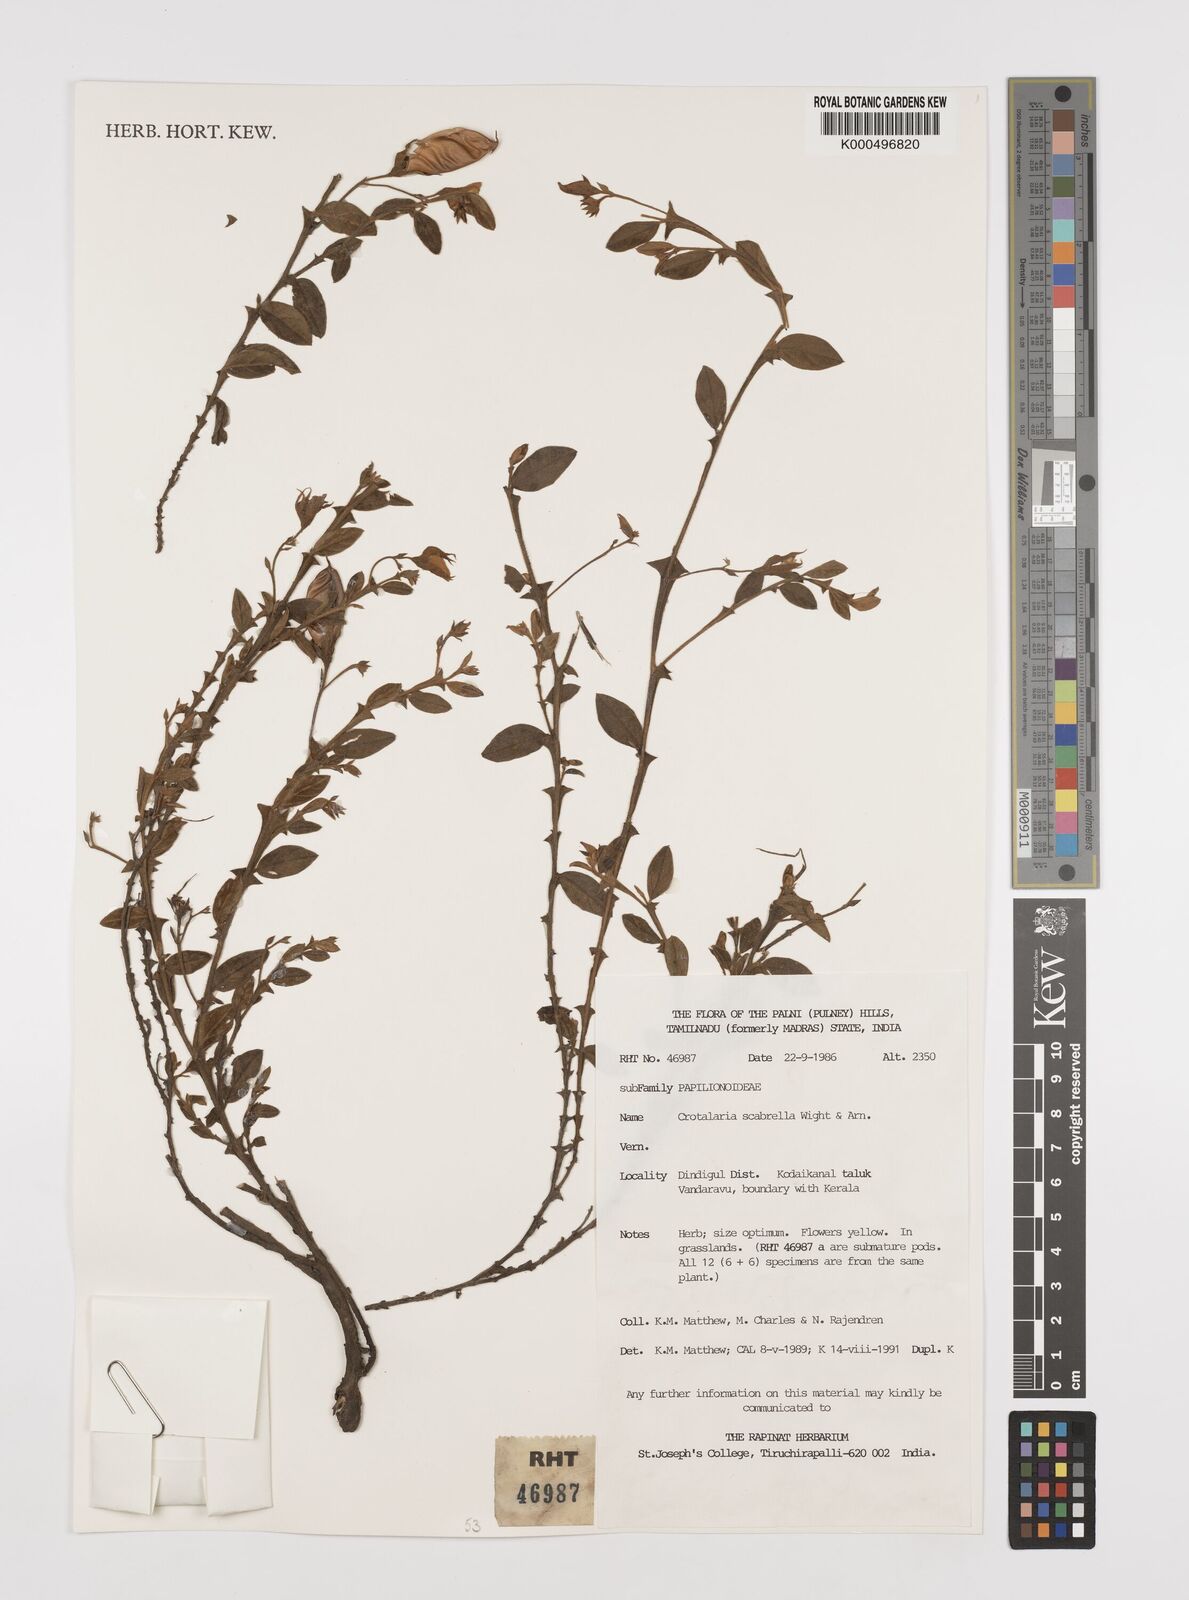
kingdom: Plantae
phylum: Tracheophyta
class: Magnoliopsida
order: Fabales
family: Fabaceae
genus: Crotalaria
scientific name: Crotalaria scabrella
